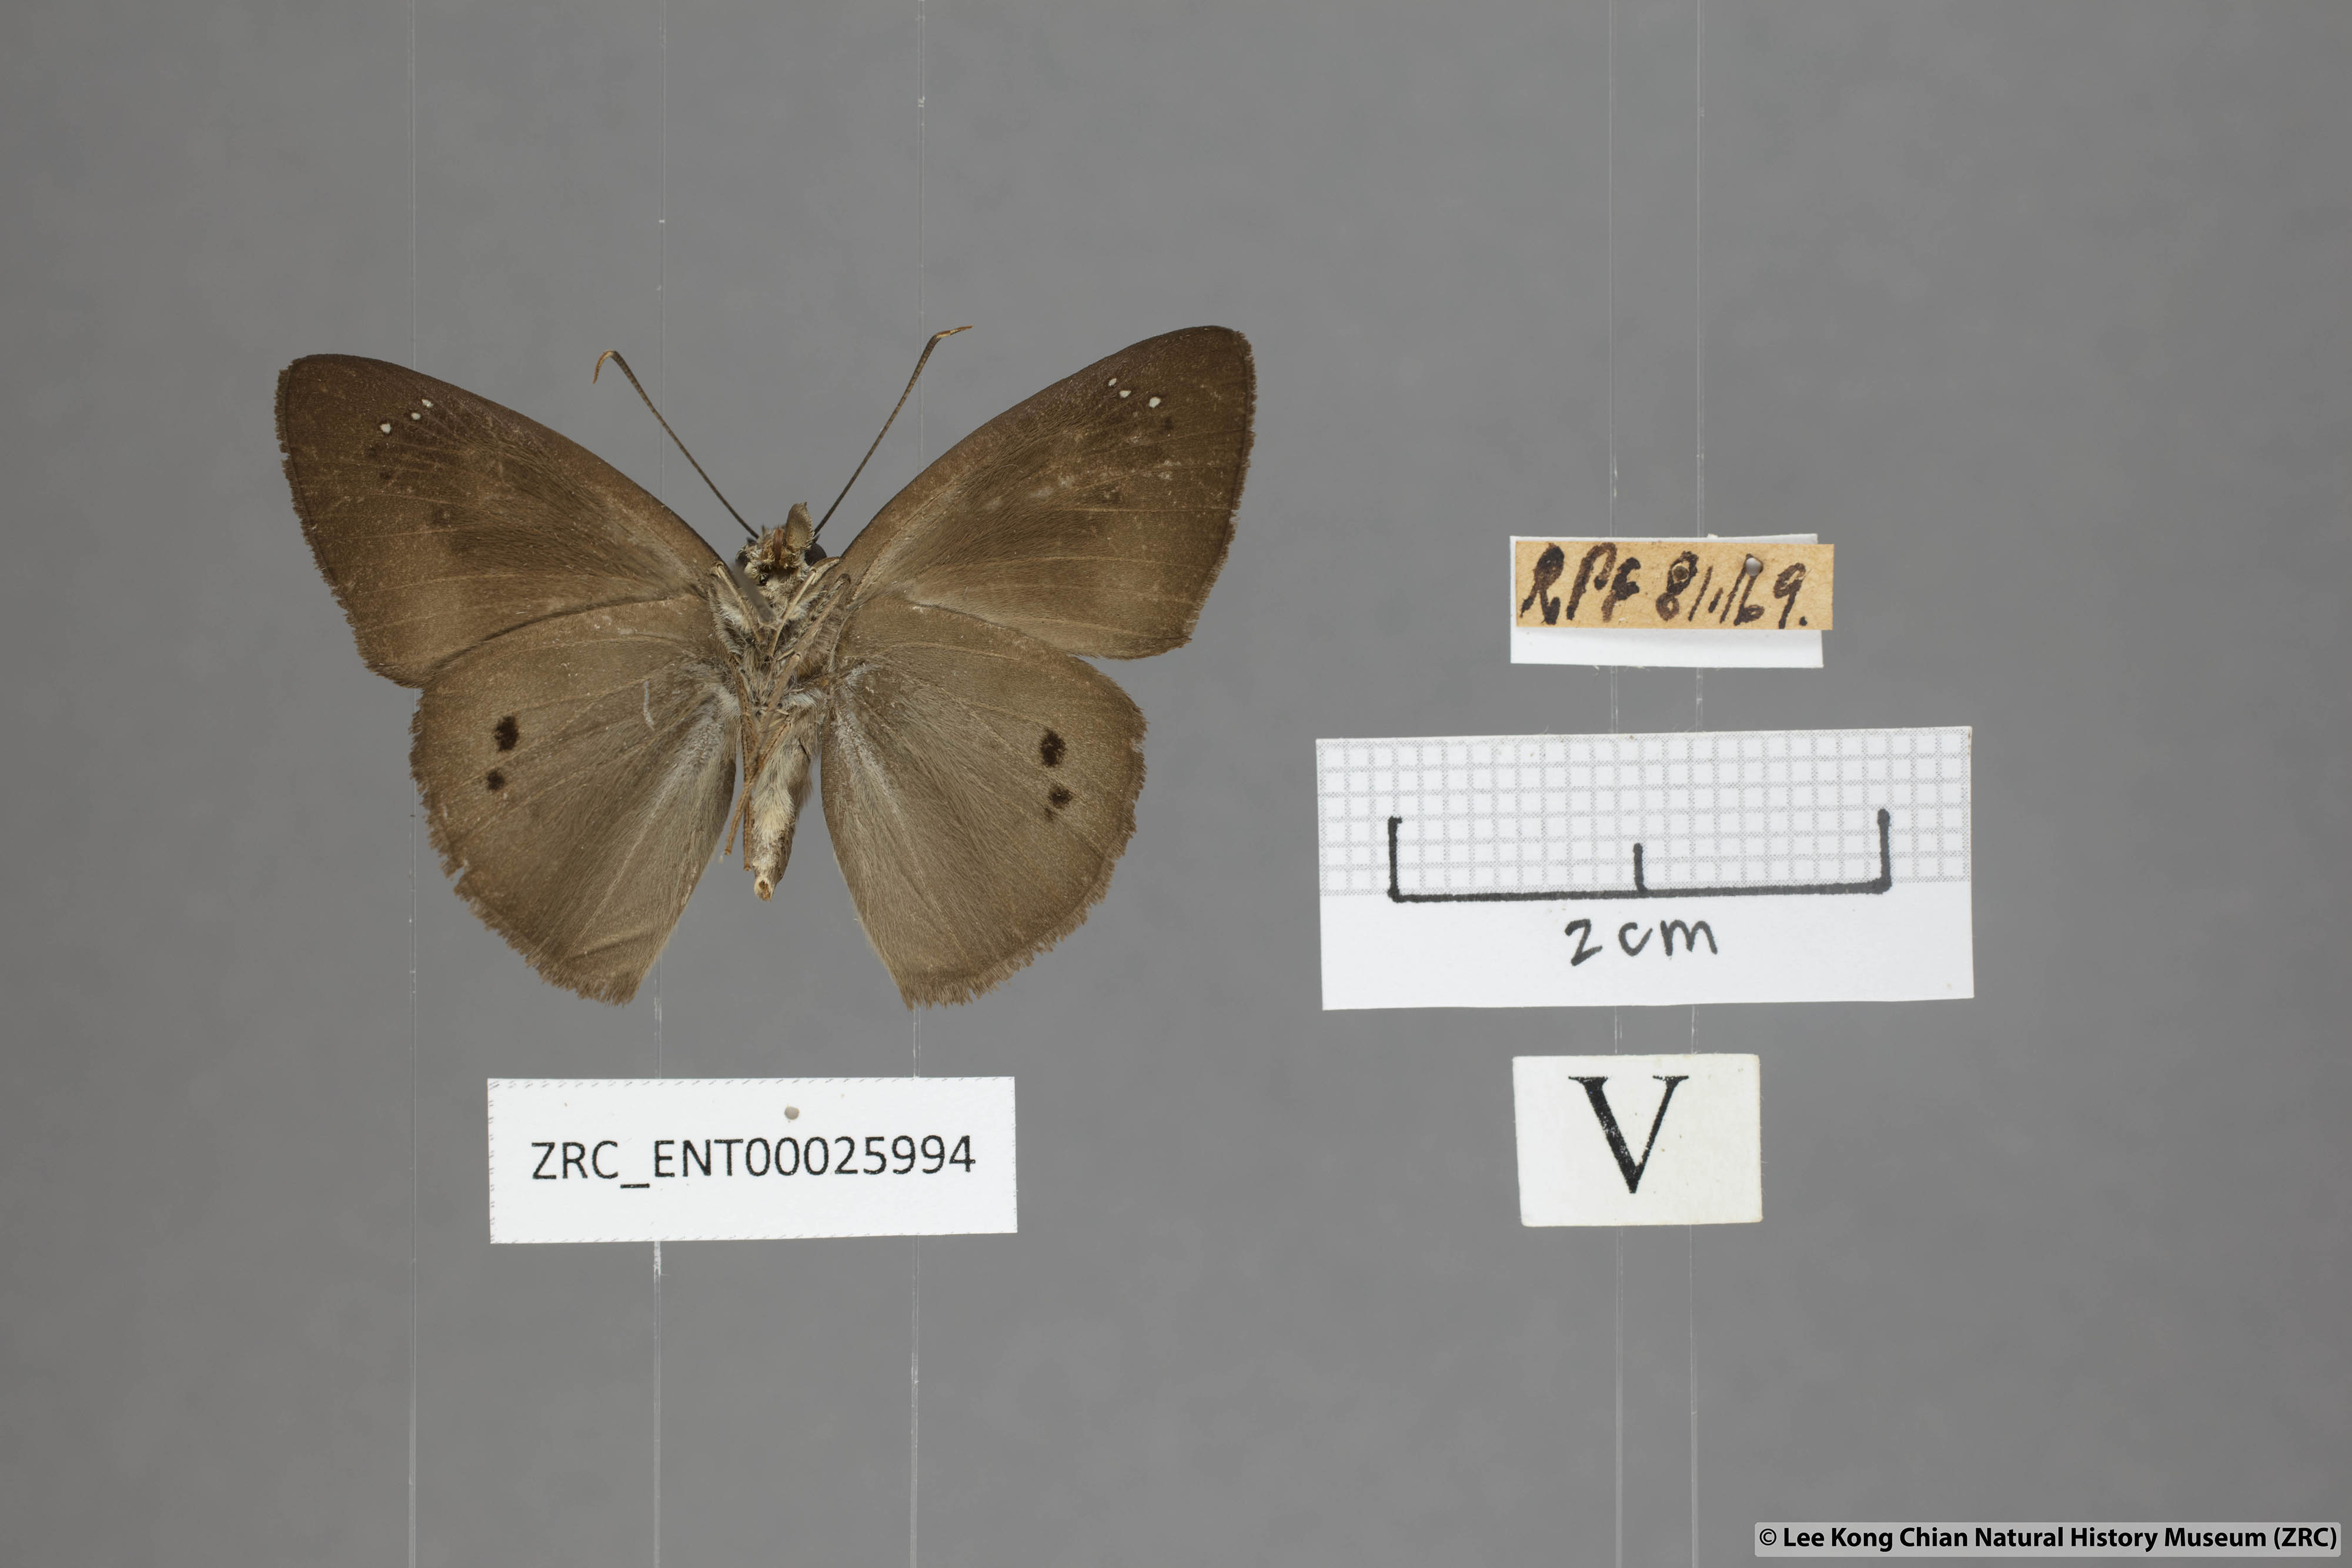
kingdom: Animalia
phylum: Arthropoda
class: Insecta
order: Lepidoptera
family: Hesperiidae
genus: Tagiades
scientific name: Tagiades japetus
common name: Pied flat
